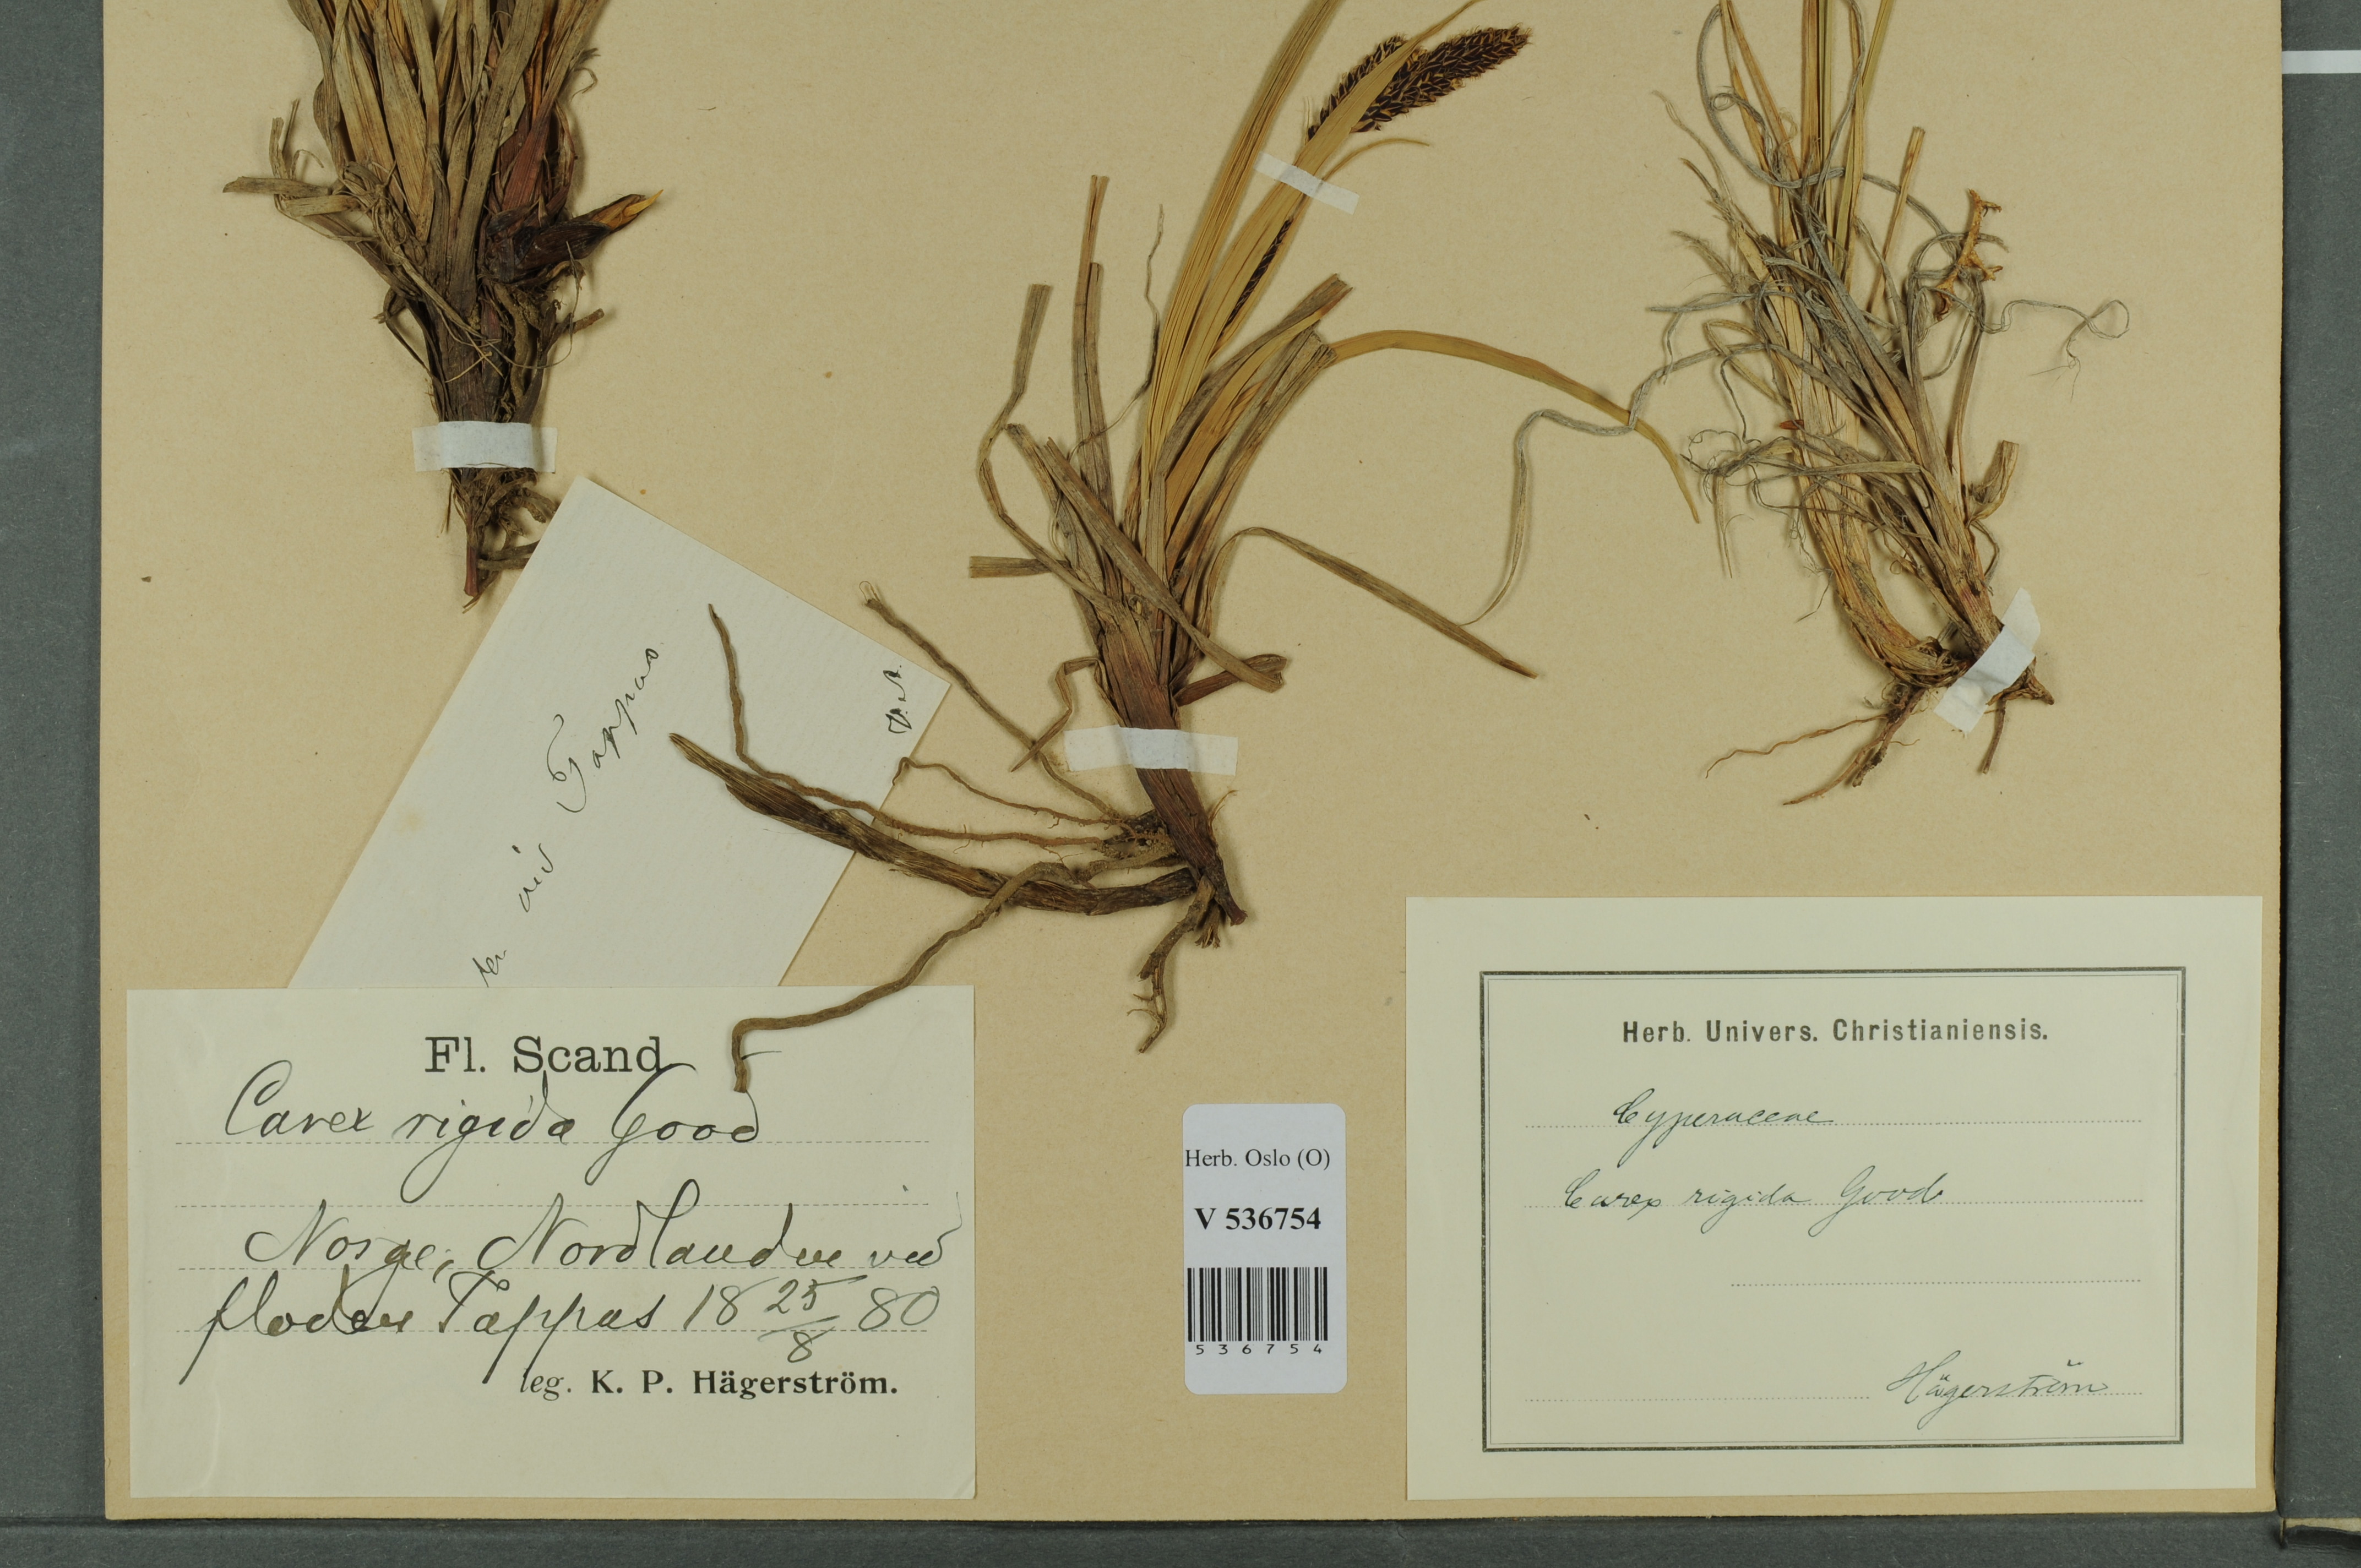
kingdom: Plantae
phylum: Tracheophyta
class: Liliopsida
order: Poales
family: Cyperaceae
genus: Carex
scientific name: Carex dacica
